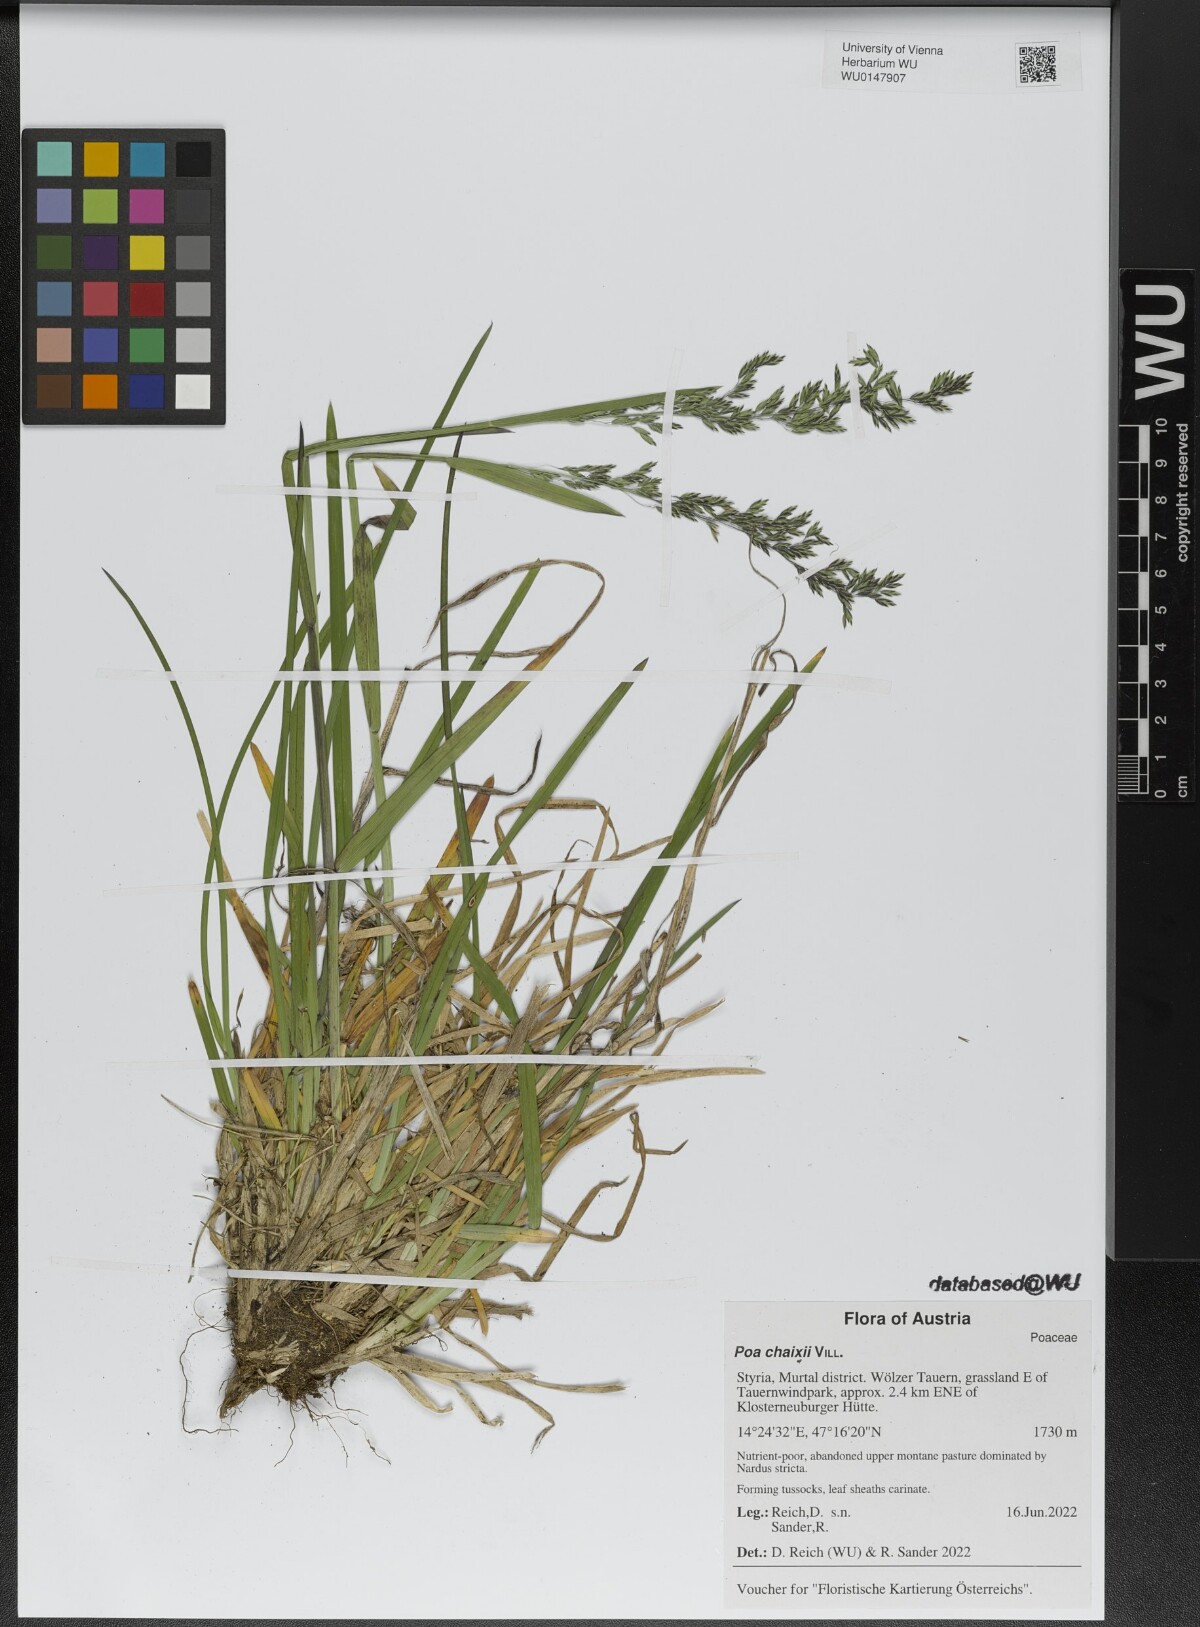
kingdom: Plantae
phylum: Tracheophyta
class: Liliopsida
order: Poales
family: Poaceae
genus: Poa
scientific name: Poa chaixii
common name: Broad-leaved meadow-grass
